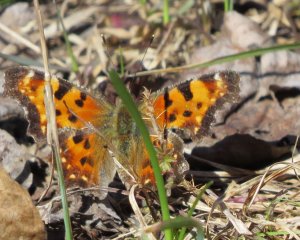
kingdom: Animalia
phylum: Arthropoda
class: Insecta
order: Lepidoptera
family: Nymphalidae
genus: Polygonia
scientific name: Polygonia faunus
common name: Green Comma
